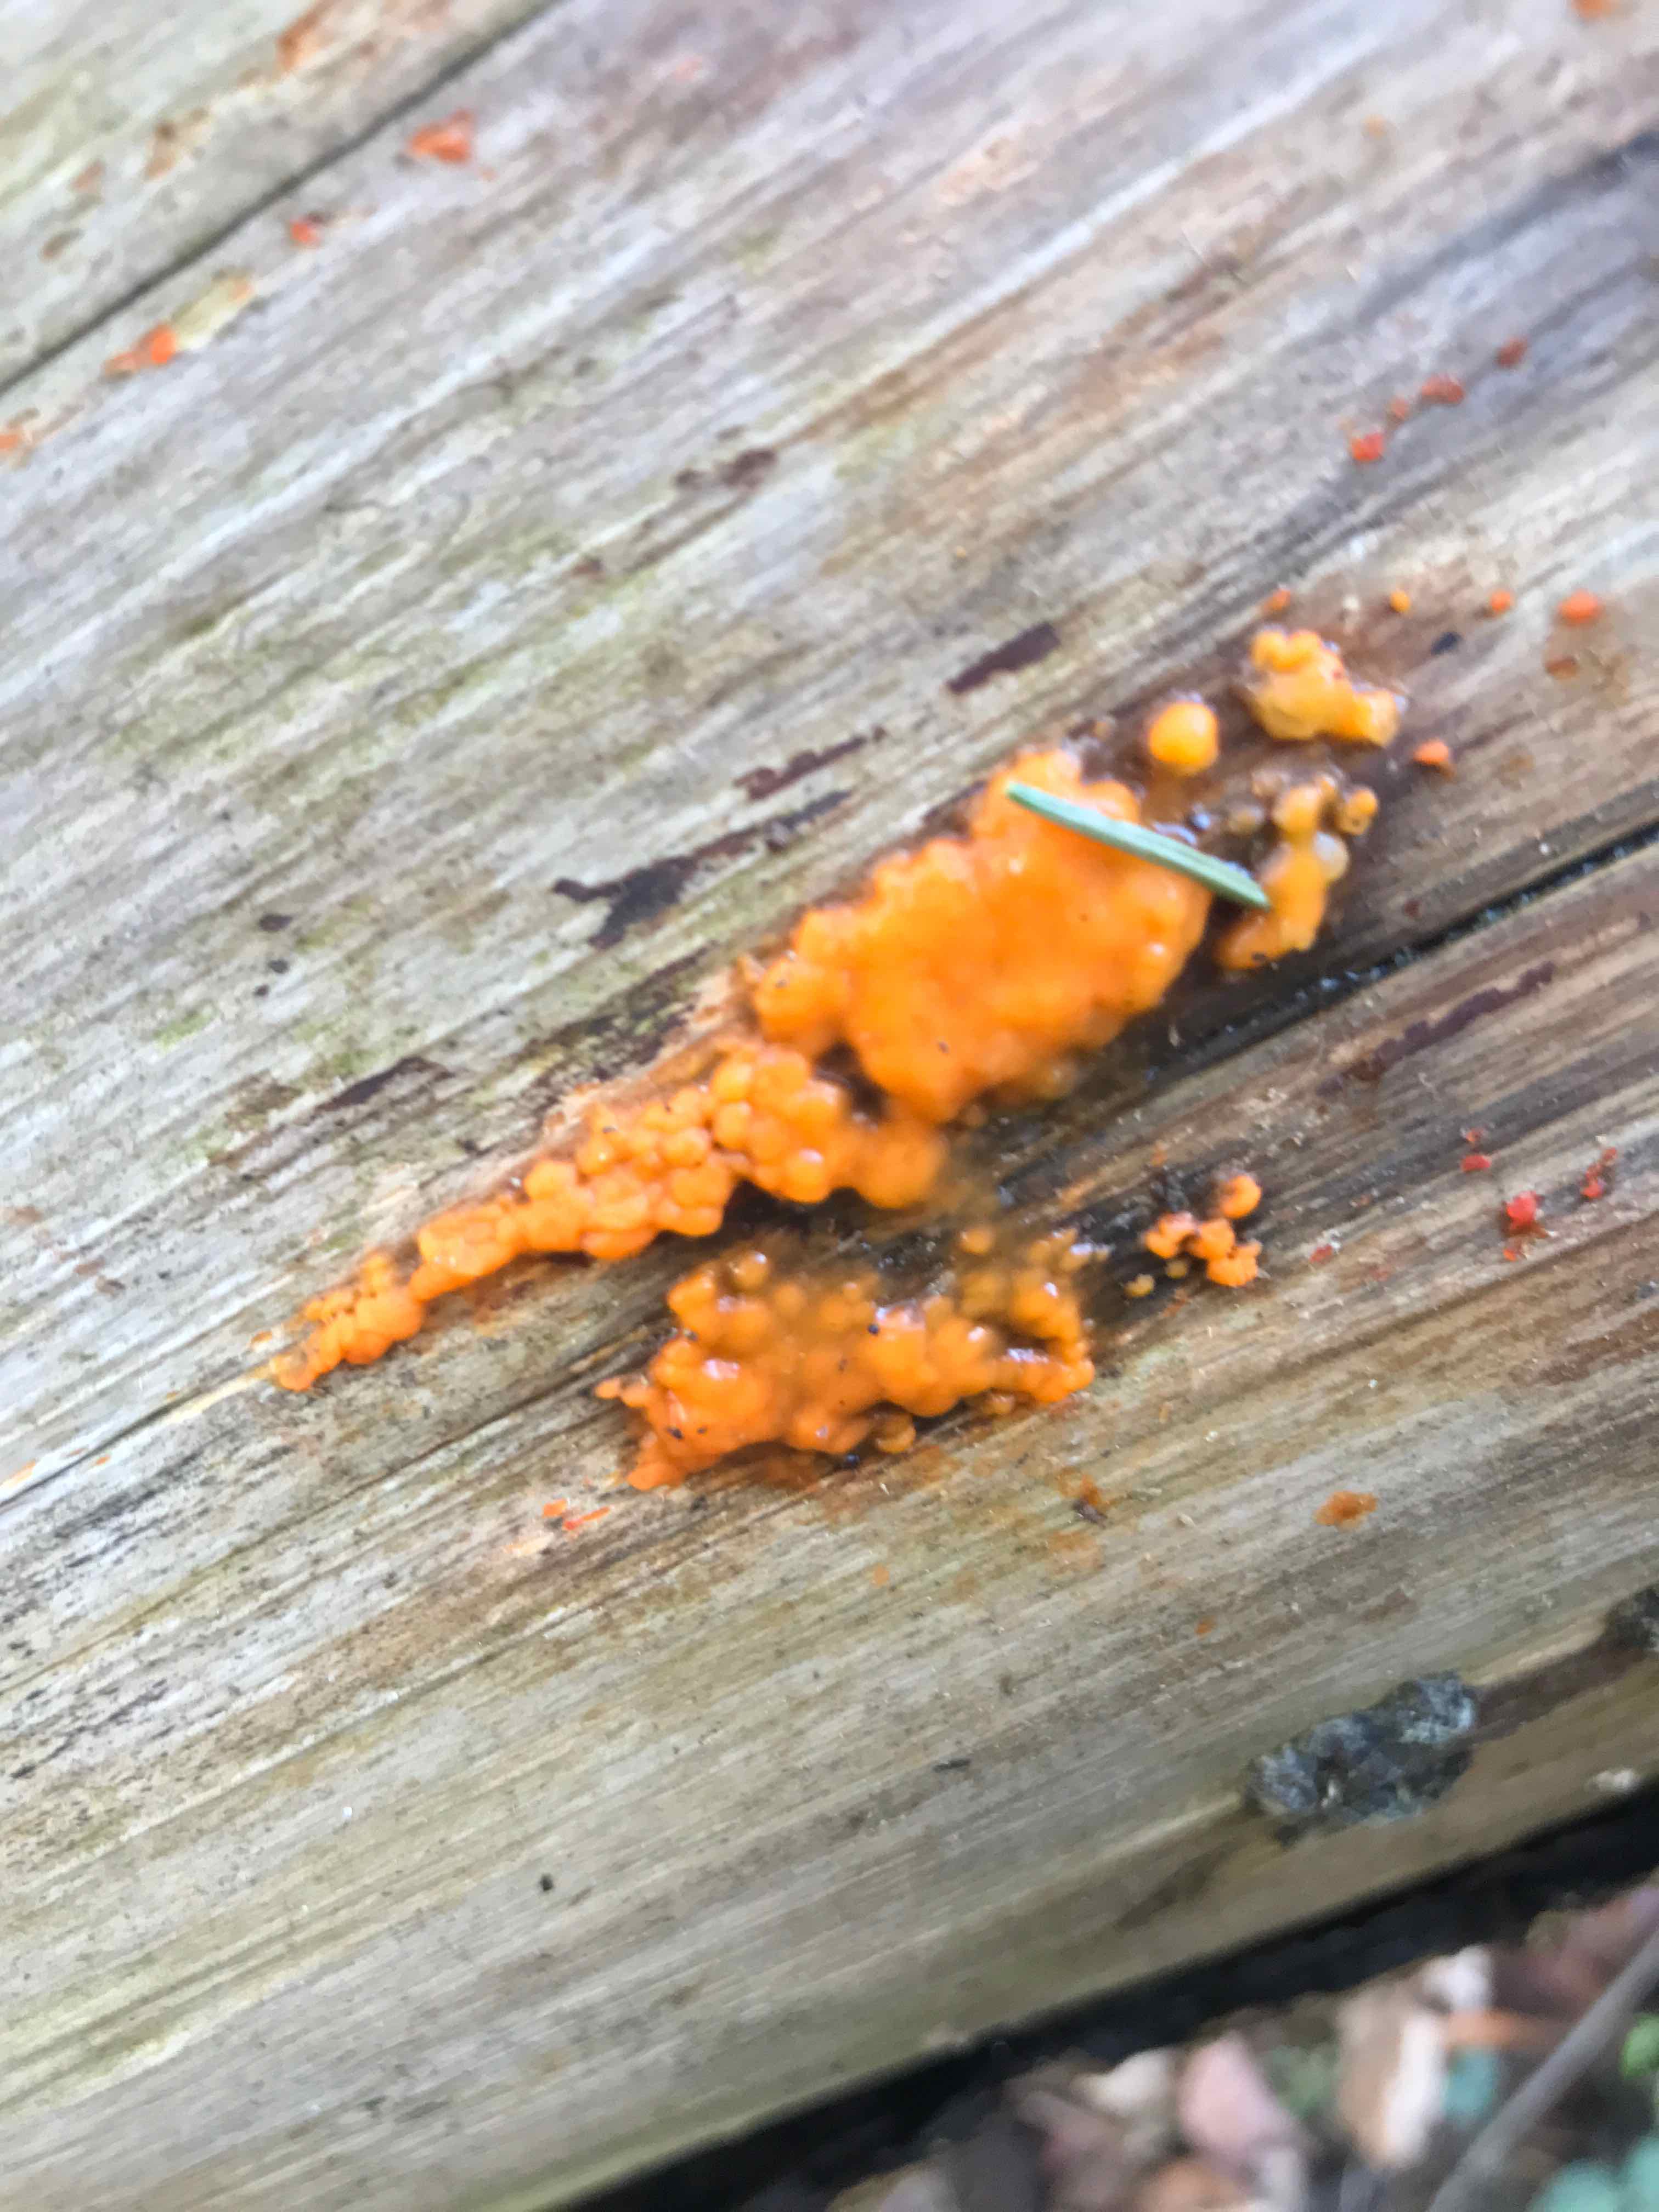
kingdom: Fungi
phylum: Basidiomycota
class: Dacrymycetes
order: Dacrymycetales
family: Dacrymycetaceae
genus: Dacrymyces
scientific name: Dacrymyces stillatus
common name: almindelig tåresvamp
